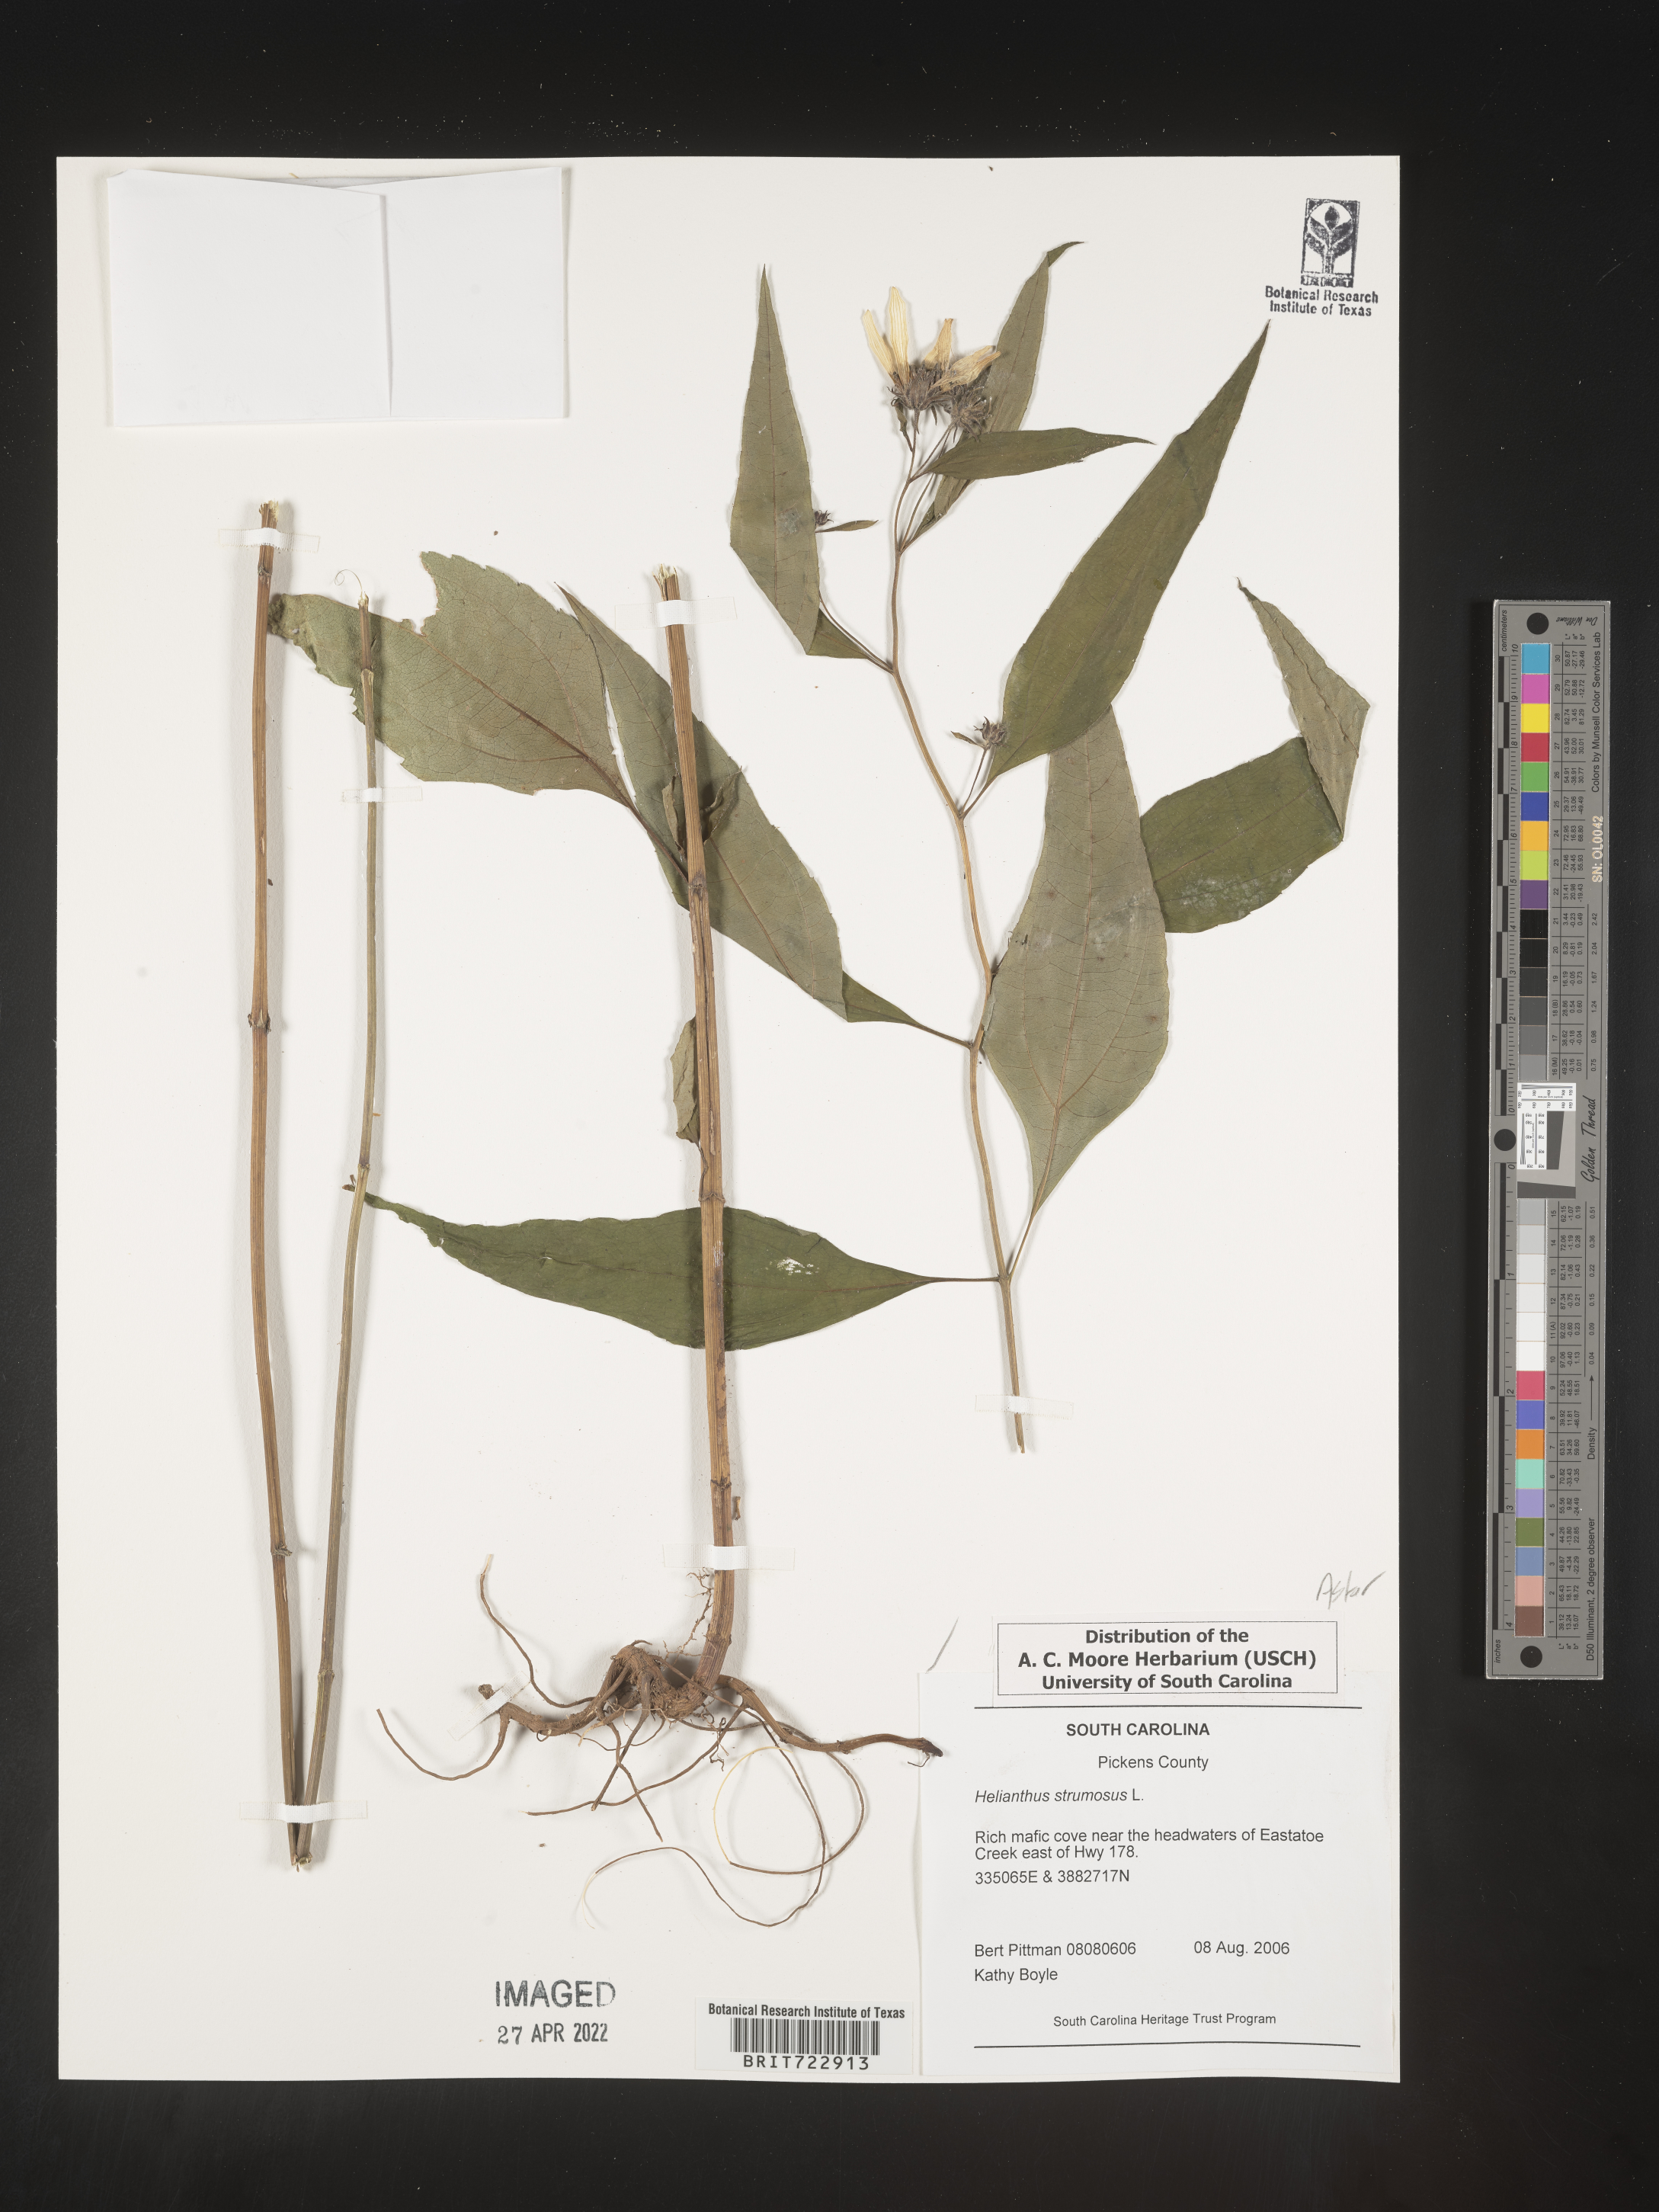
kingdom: Plantae
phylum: Tracheophyta
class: Magnoliopsida
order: Asterales
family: Asteraceae
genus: Helianthus
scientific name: Helianthus strumosus
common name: Pale-leaved sunflower
